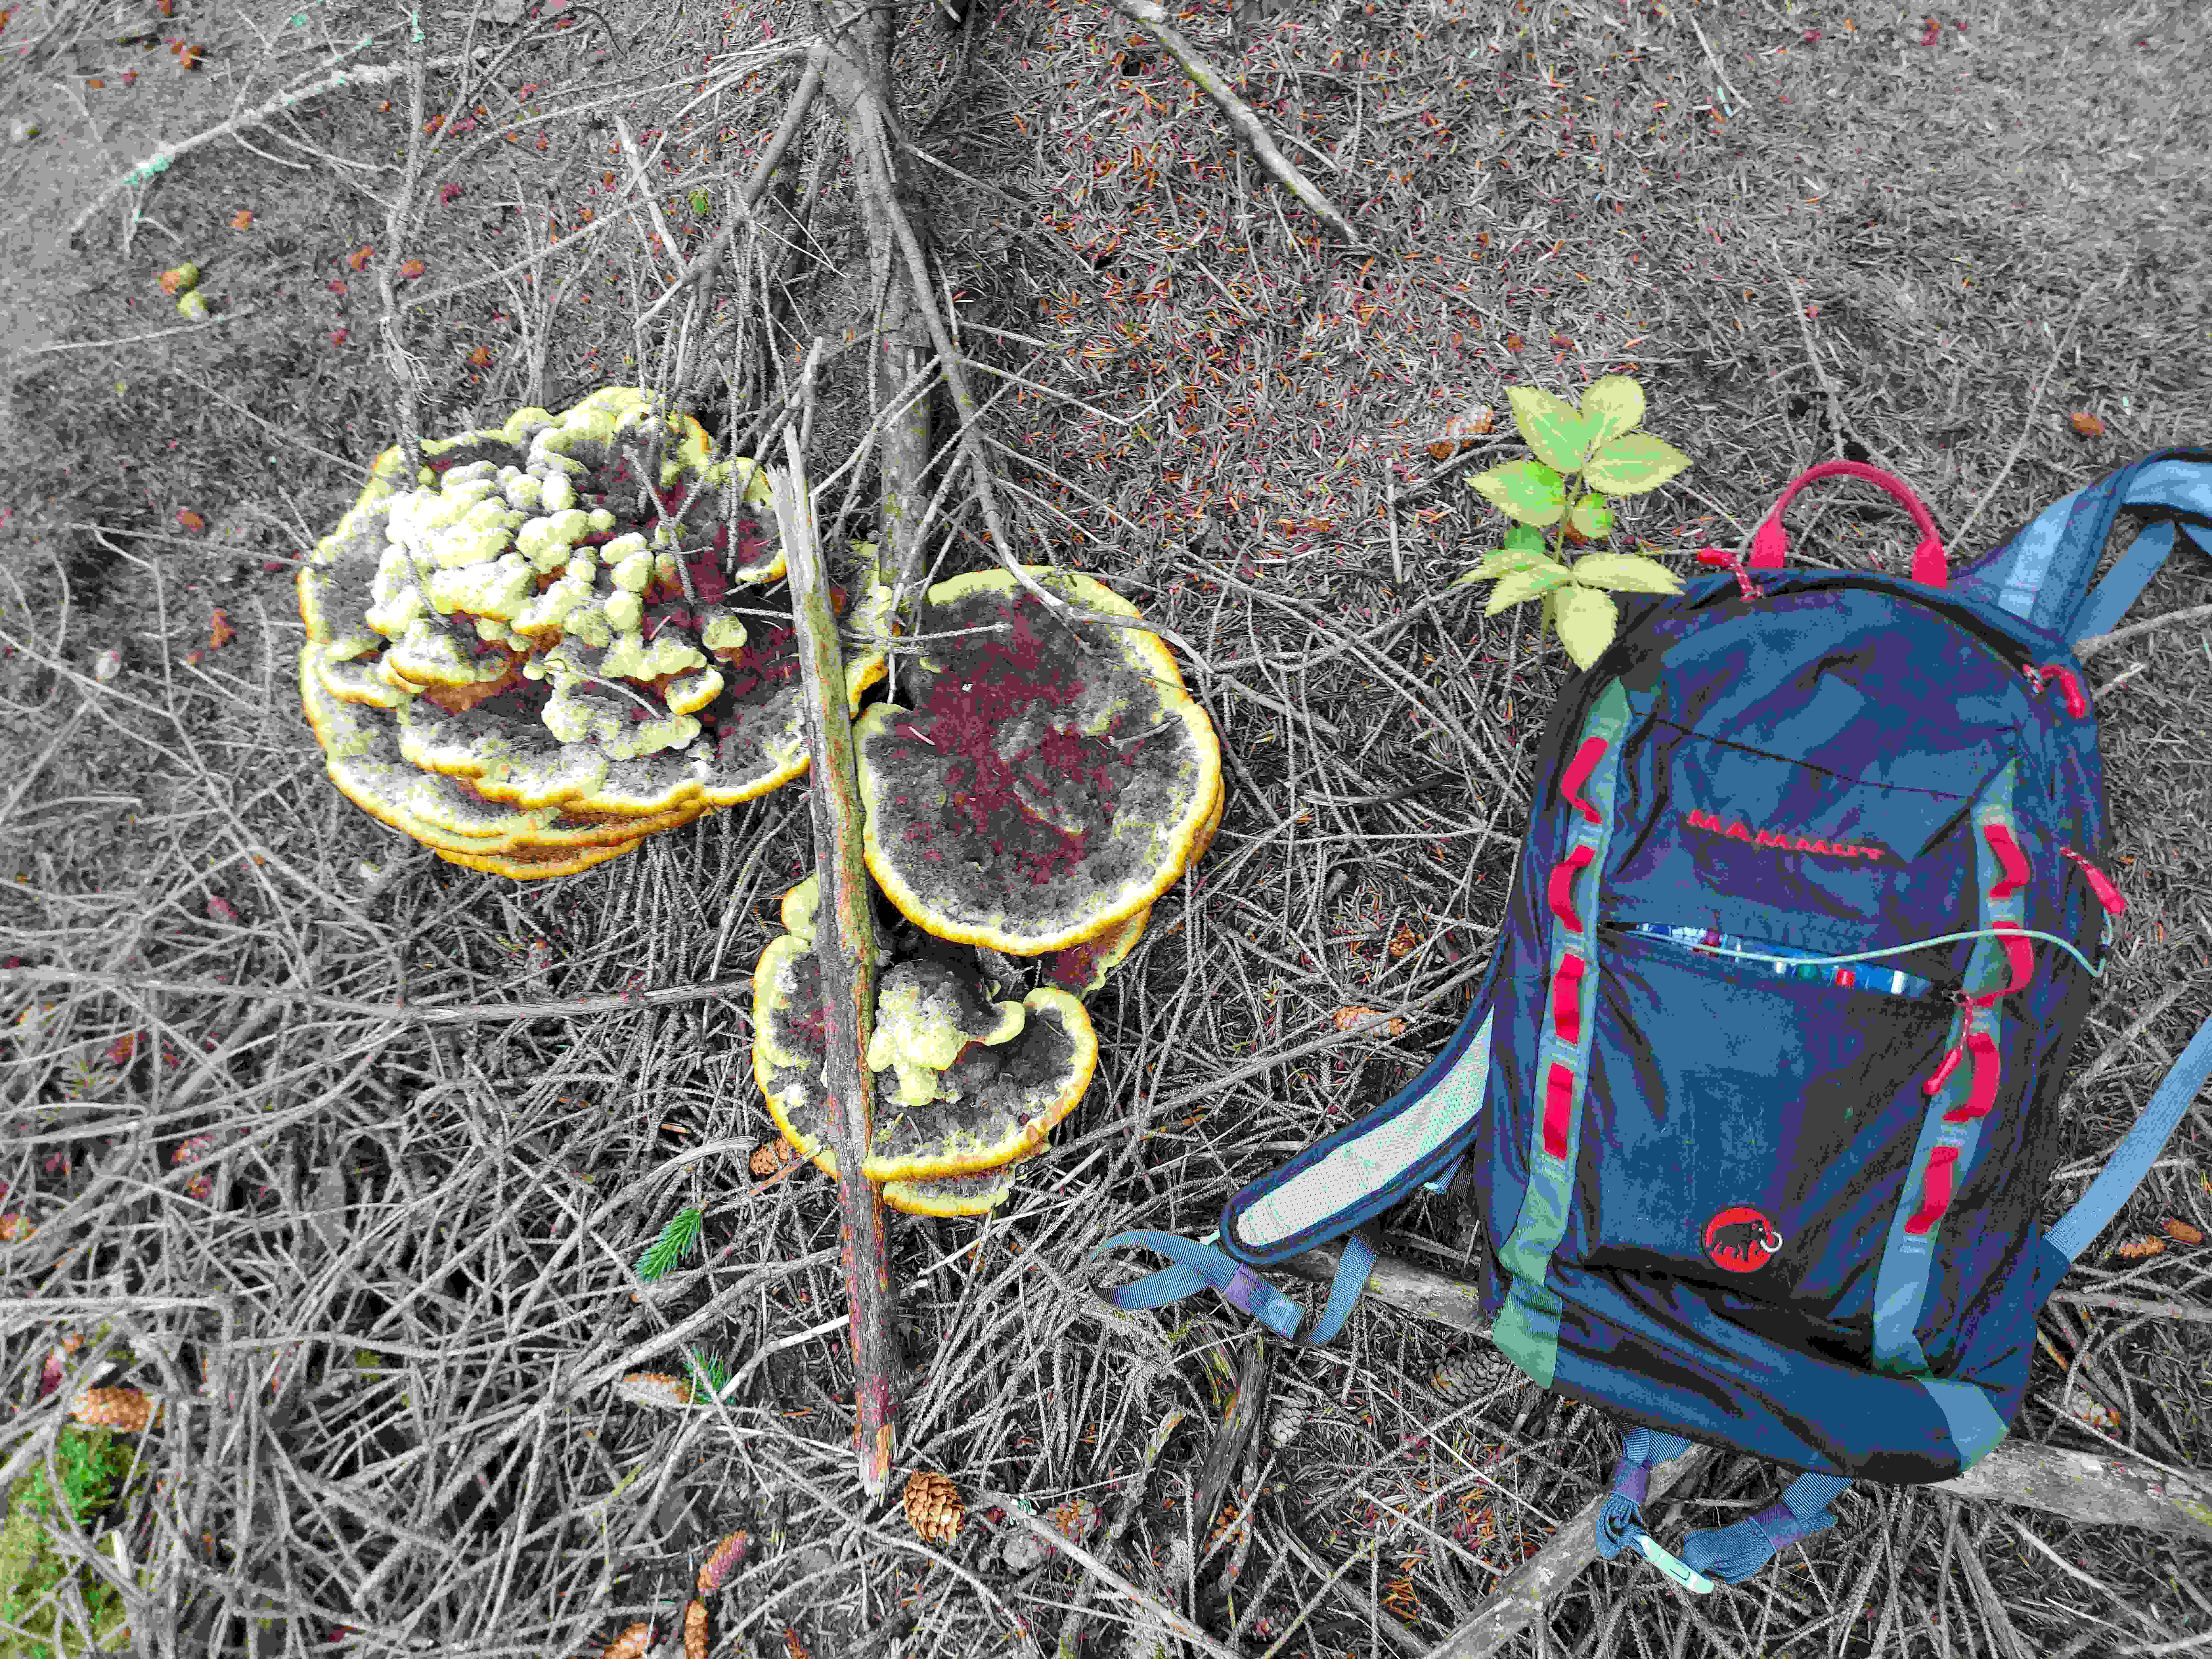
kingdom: Fungi
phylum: Basidiomycota
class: Agaricomycetes
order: Polyporales
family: Laetiporaceae
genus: Phaeolus
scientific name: Phaeolus schweinitzii
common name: brunporesvamp
